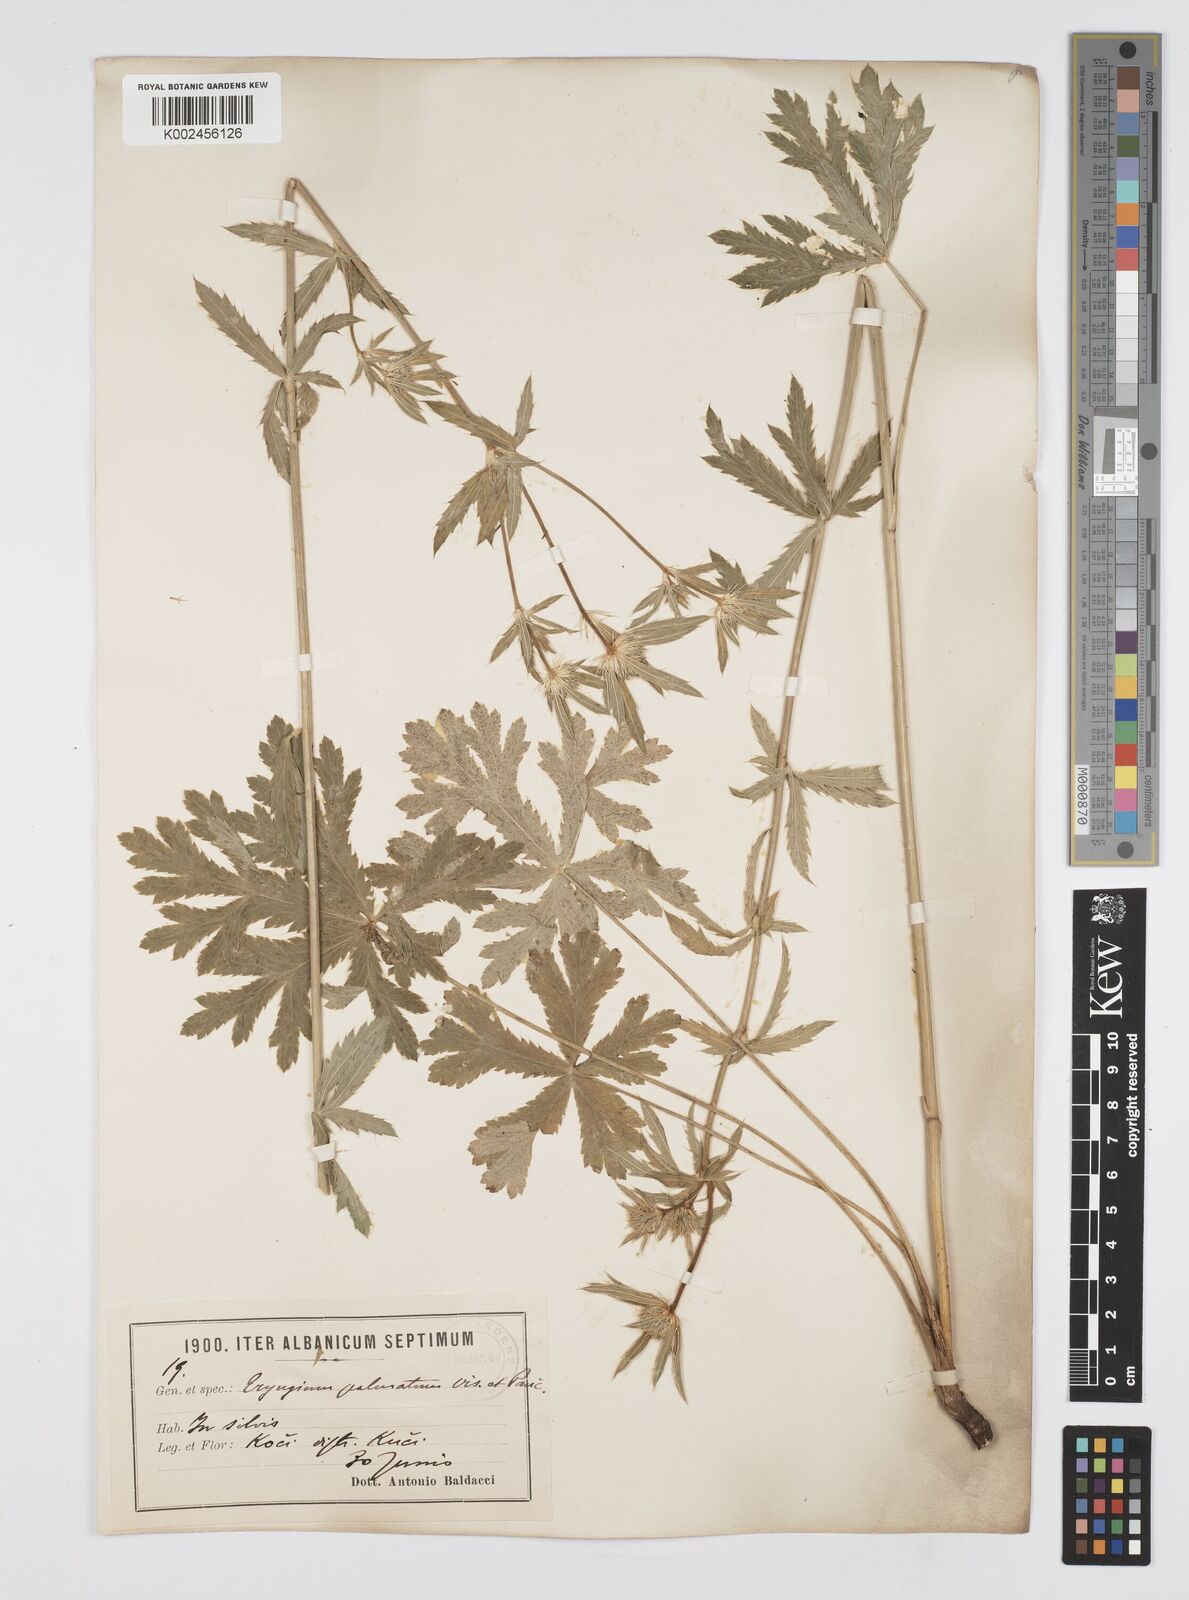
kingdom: Plantae
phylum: Tracheophyta
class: Magnoliopsida
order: Apiales
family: Apiaceae
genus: Eryngium
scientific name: Eryngium palmatum
